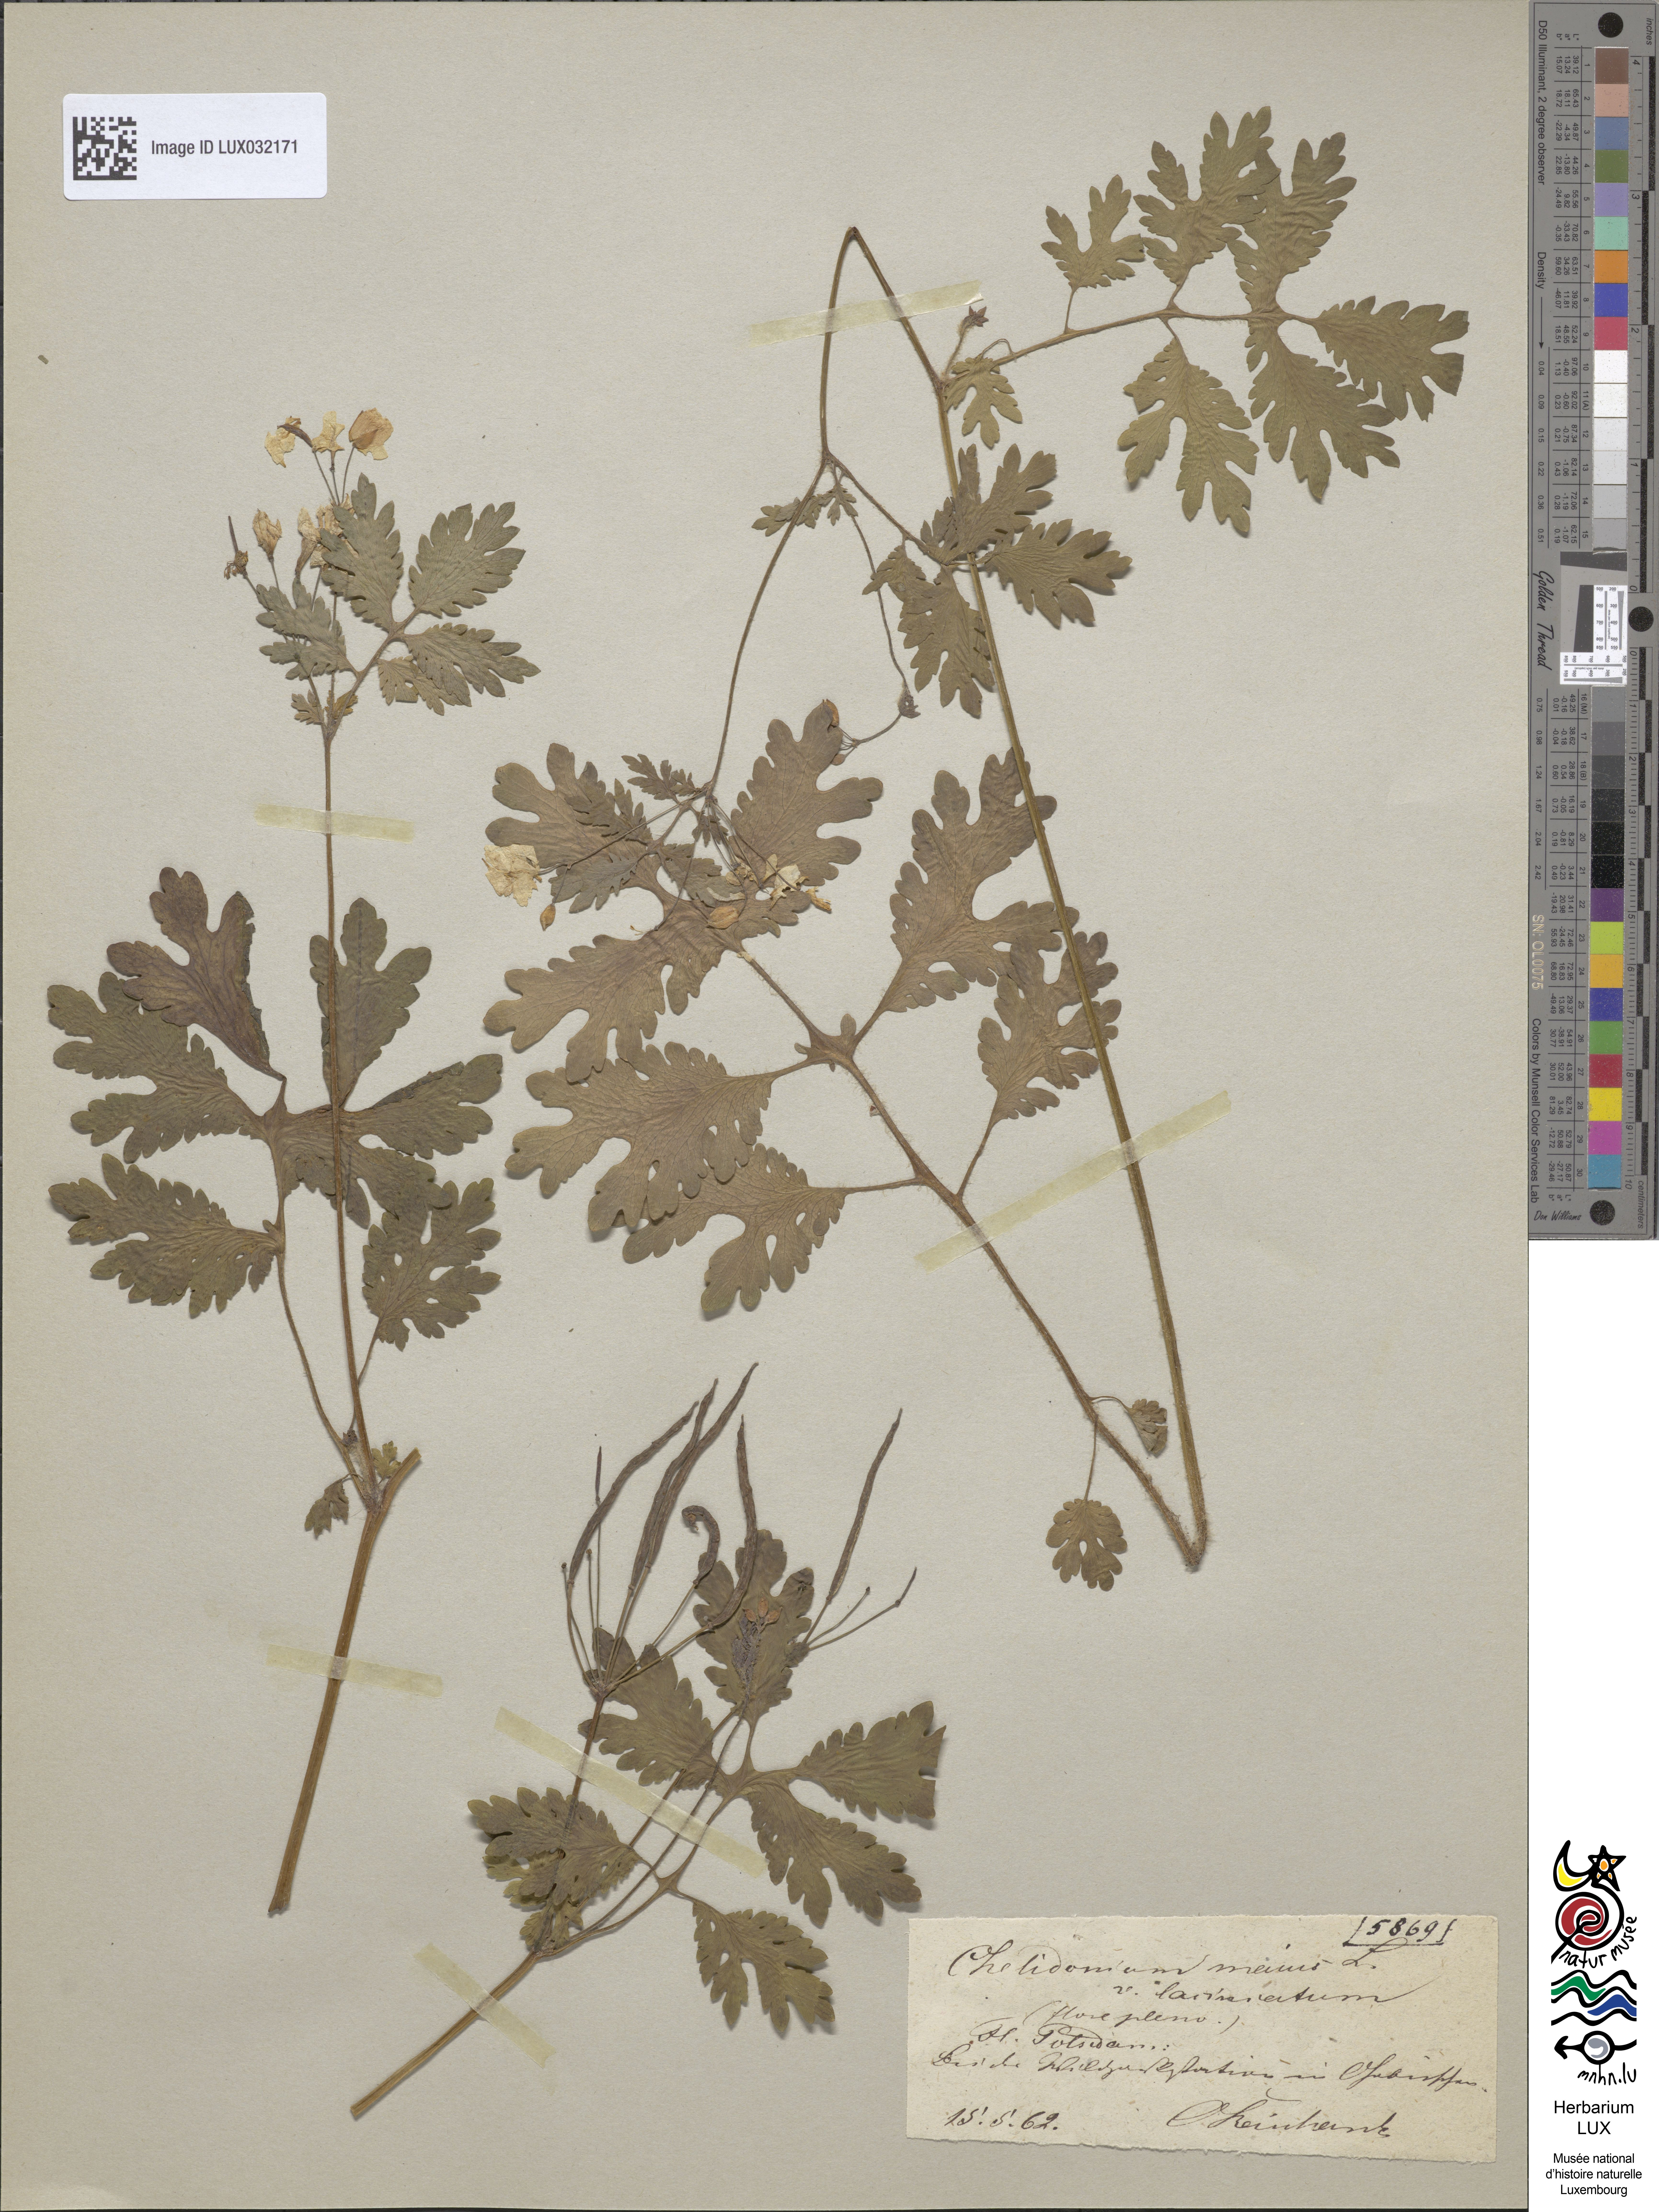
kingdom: Plantae
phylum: Tracheophyta
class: Magnoliopsida
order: Ranunculales
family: Papaveraceae
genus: Chelidonium
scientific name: Chelidonium majus
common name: Greater celandine
